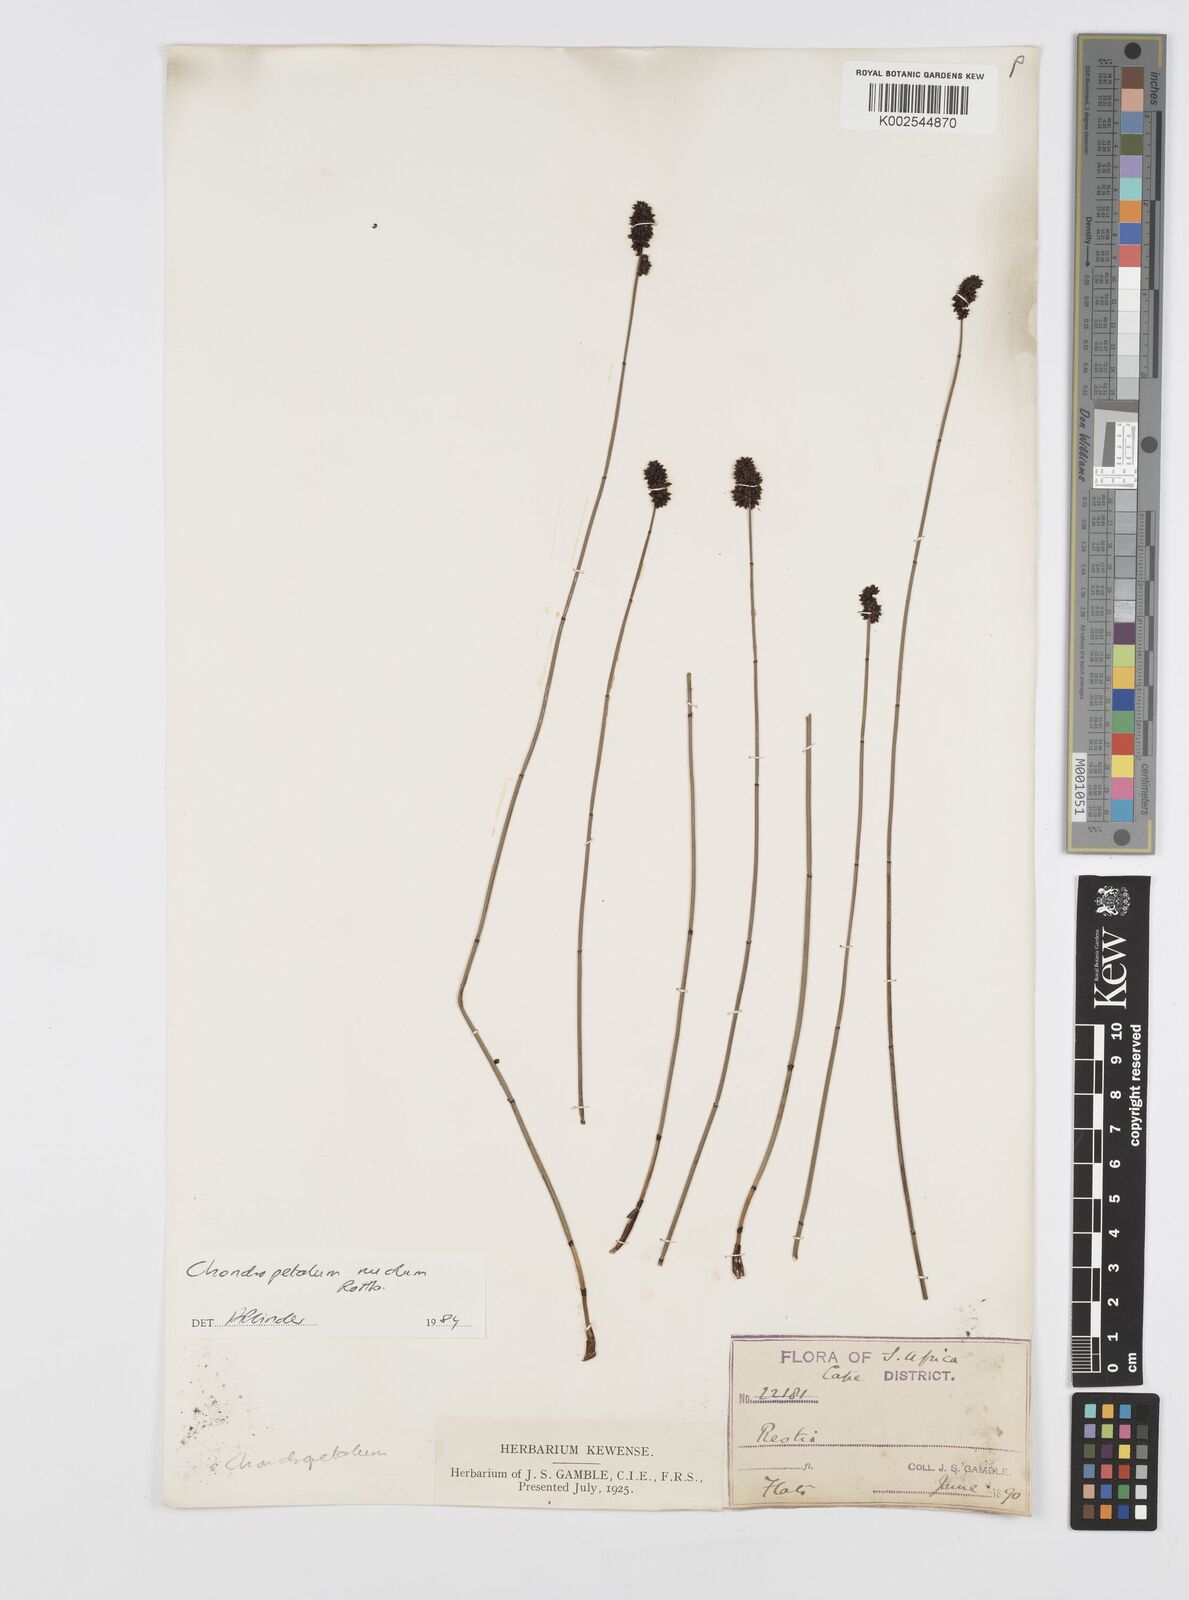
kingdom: Plantae
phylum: Tracheophyta
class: Liliopsida
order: Poales
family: Restionaceae
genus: Elegia
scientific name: Elegia nuda
